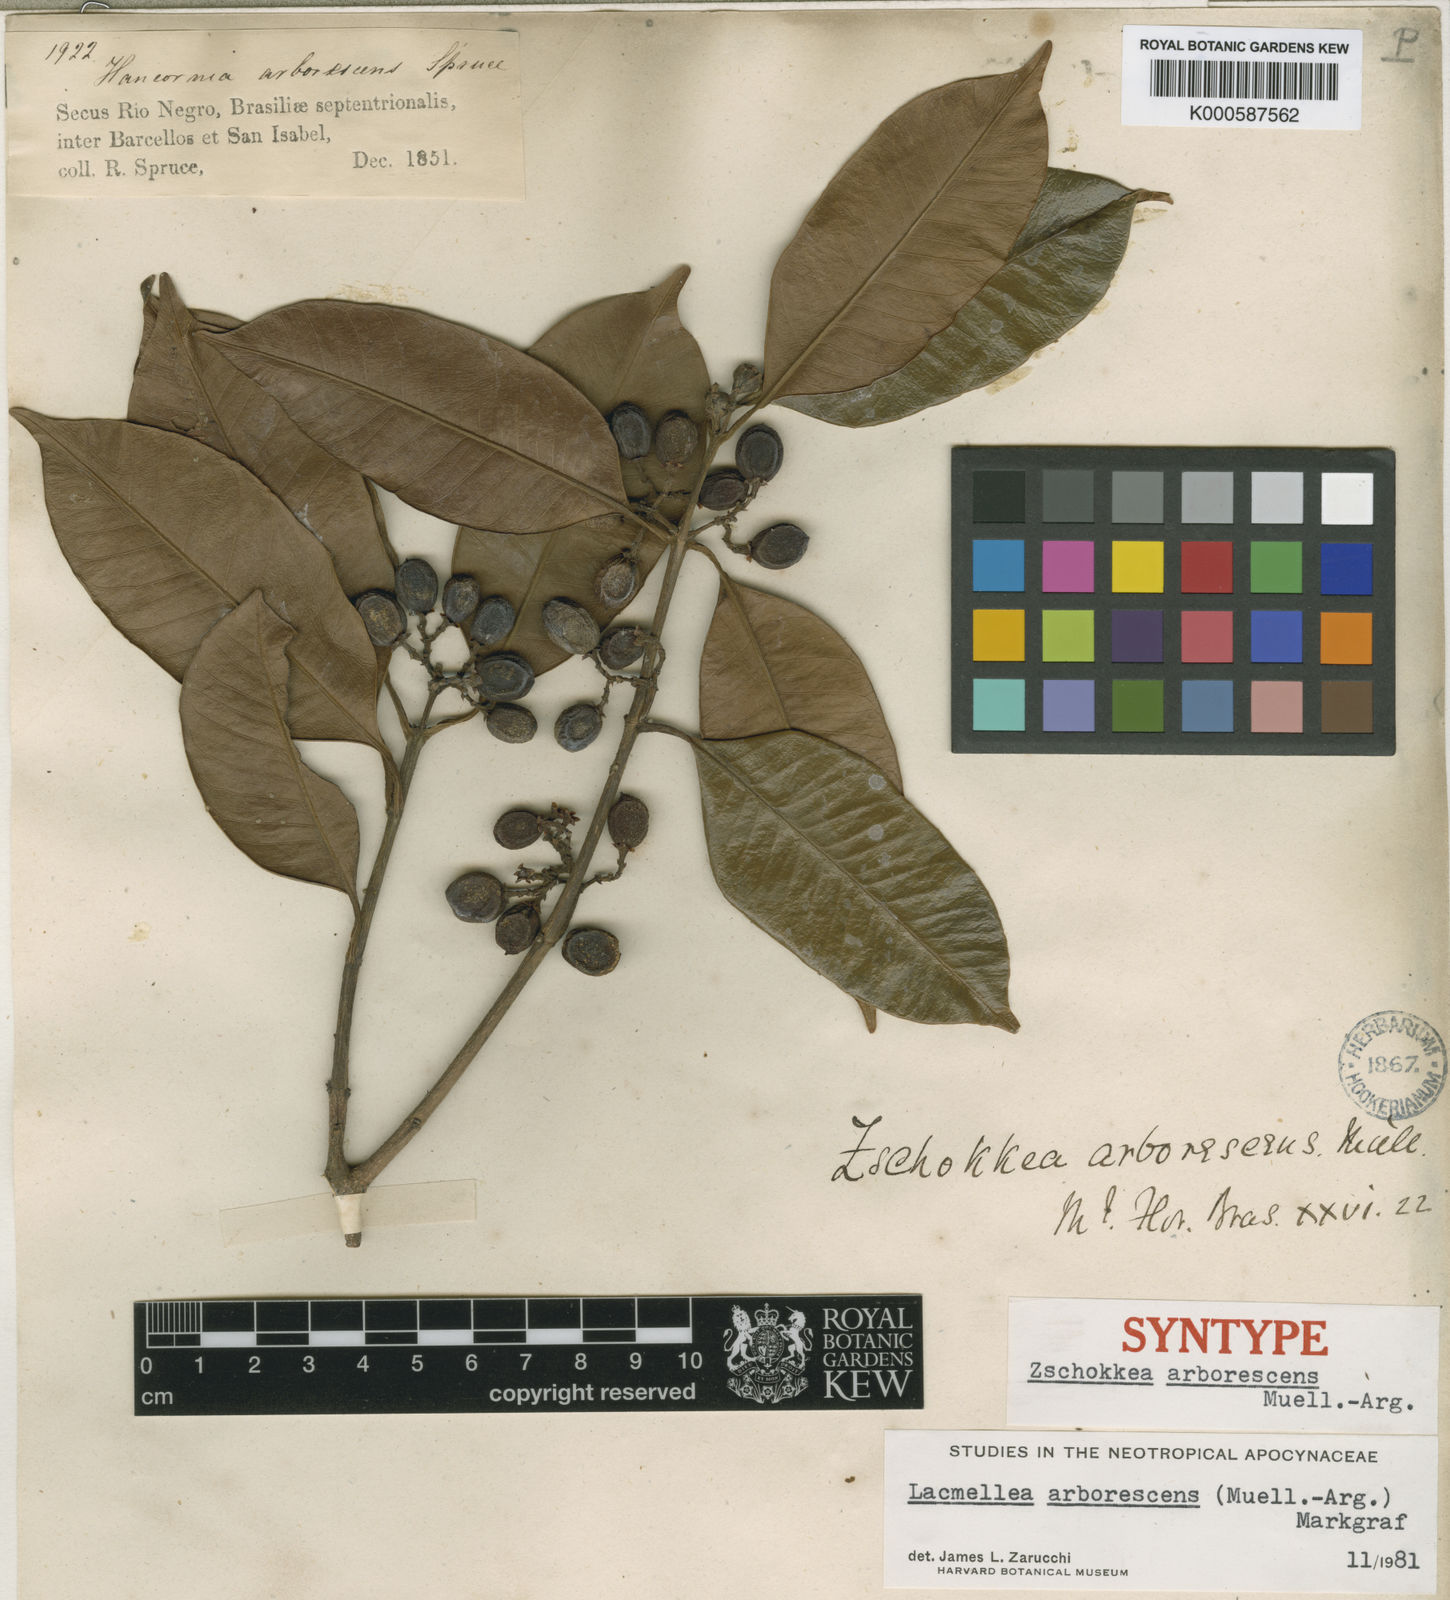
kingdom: Plantae
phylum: Tracheophyta
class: Magnoliopsida
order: Gentianales
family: Apocynaceae
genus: Lacmellea
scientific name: Lacmellea
